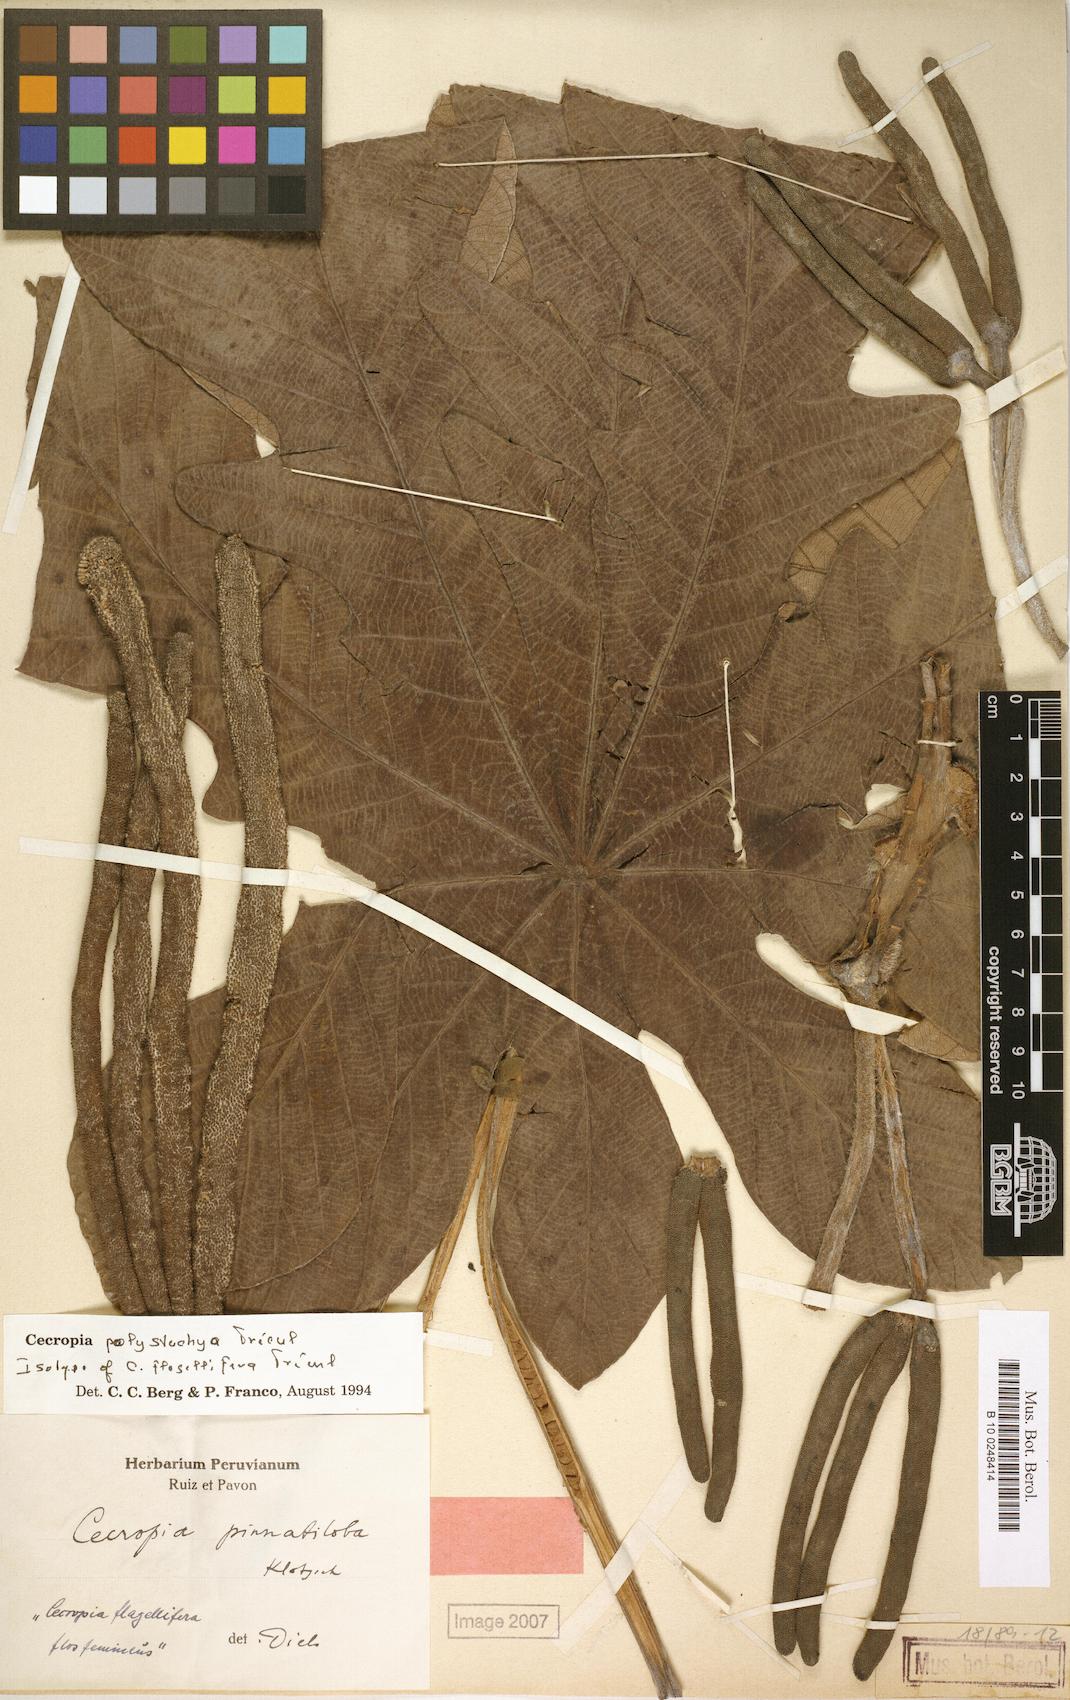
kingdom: Plantae
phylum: Tracheophyta
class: Magnoliopsida
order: Rosales
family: Urticaceae
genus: Cecropia
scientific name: Cecropia polystachya
